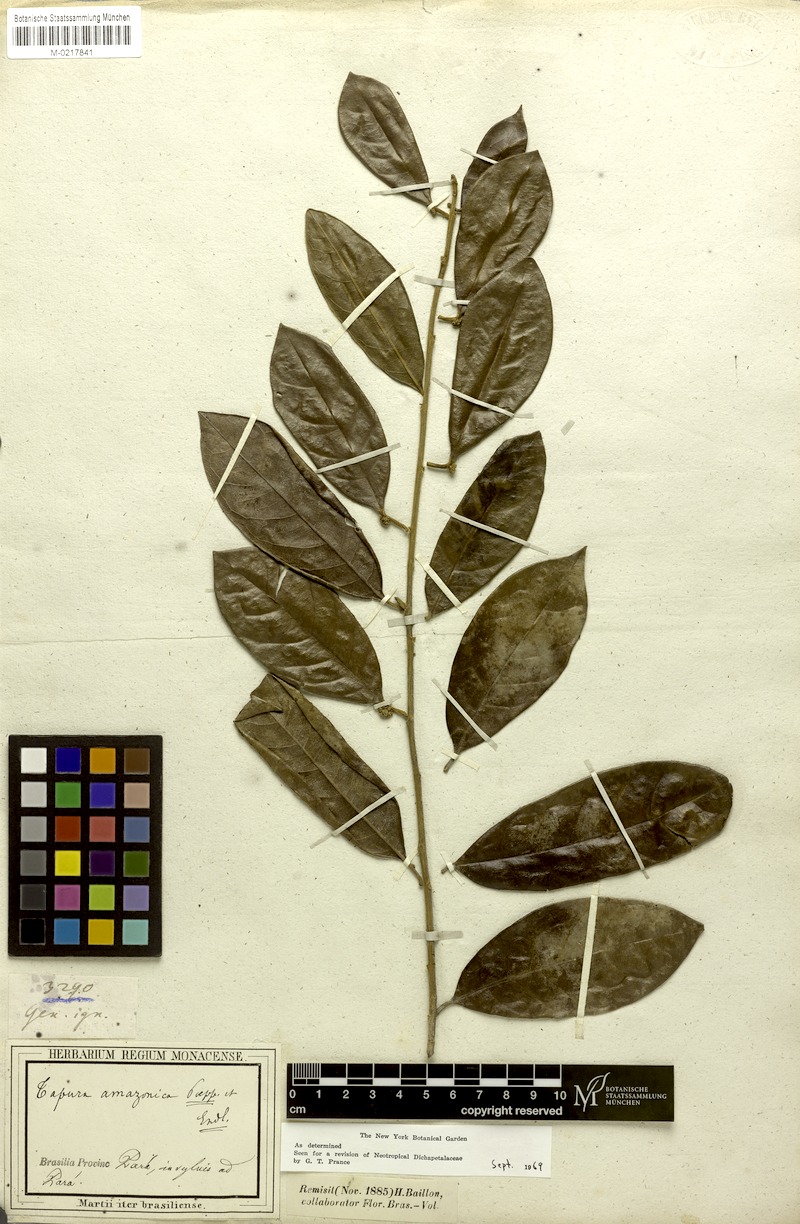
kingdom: Plantae
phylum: Tracheophyta
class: Magnoliopsida
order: Malpighiales
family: Dichapetalaceae
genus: Tapura
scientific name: Tapura amazonica
